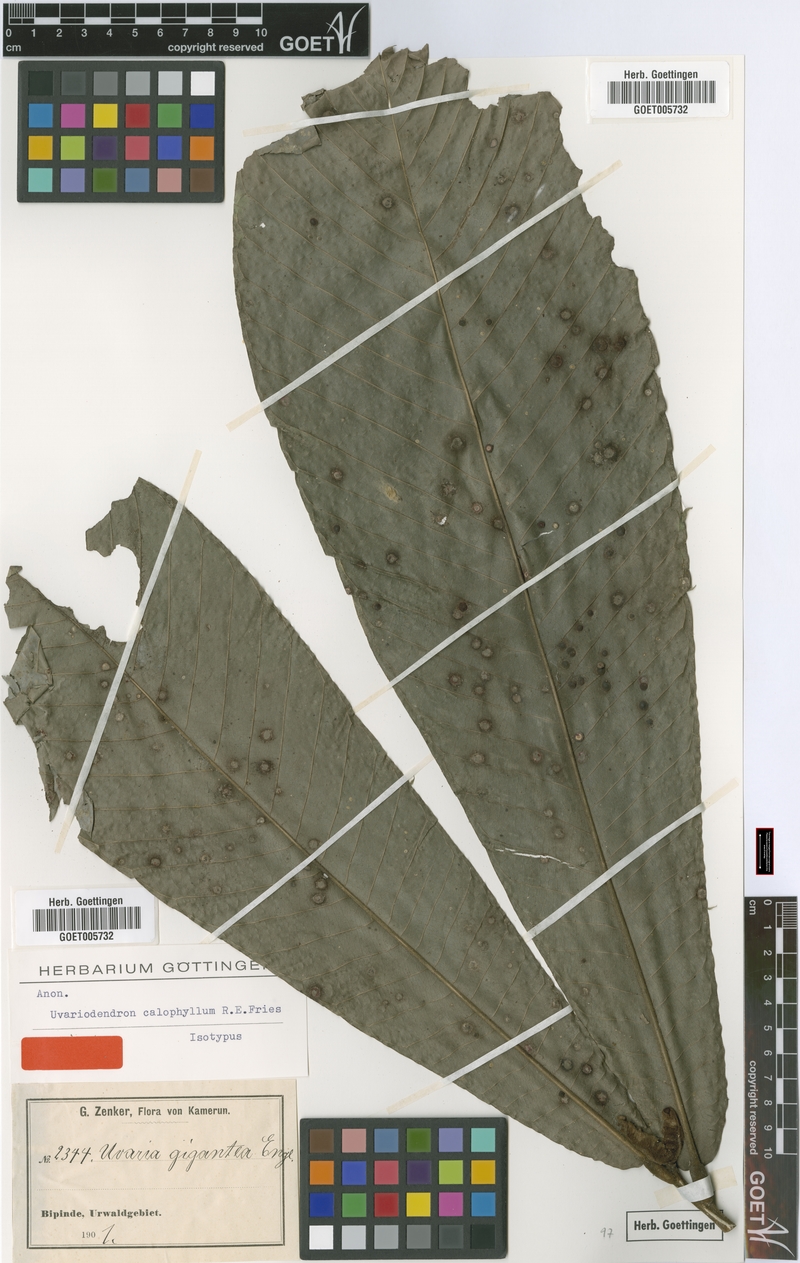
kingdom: Plantae
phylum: Tracheophyta
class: Magnoliopsida
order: Magnoliales
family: Annonaceae
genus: Uvariodendron
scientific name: Uvariodendron calophyllum
